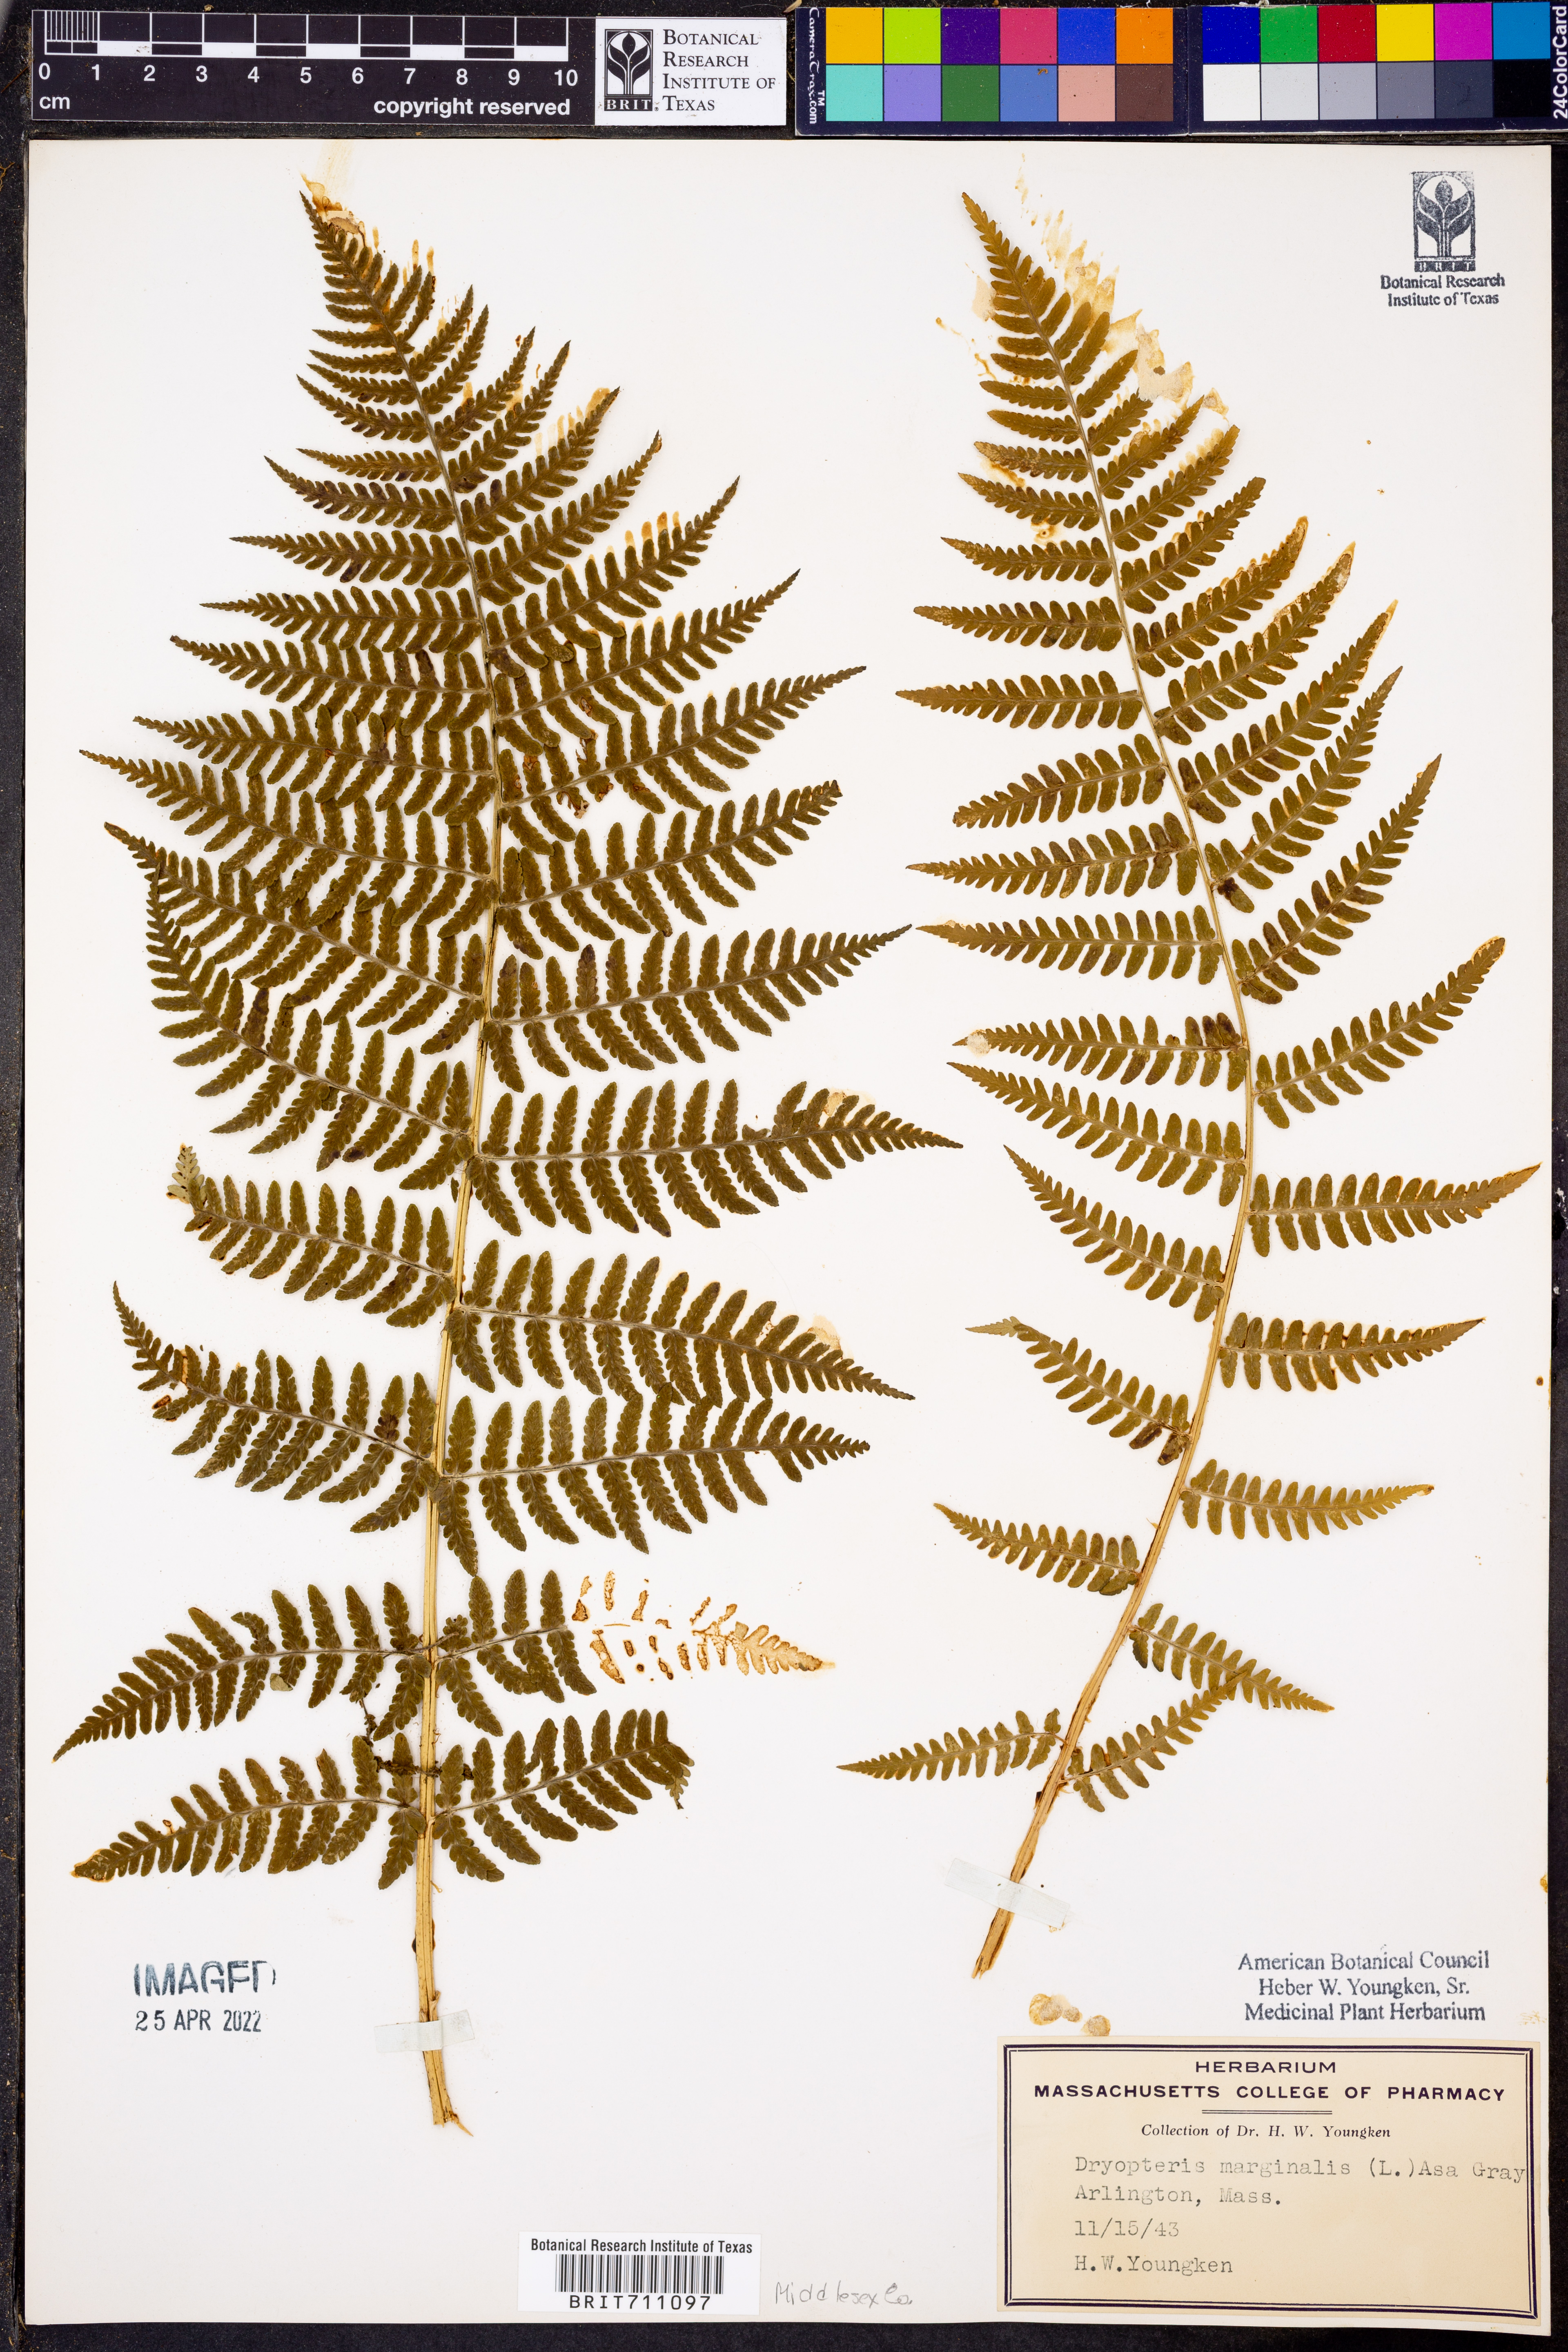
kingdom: Plantae
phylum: Tracheophyta
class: Polypodiopsida
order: Polypodiales
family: Dryopteridaceae
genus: Dryopteris
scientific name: Dryopteris marginalis
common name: Marginal wood fern
